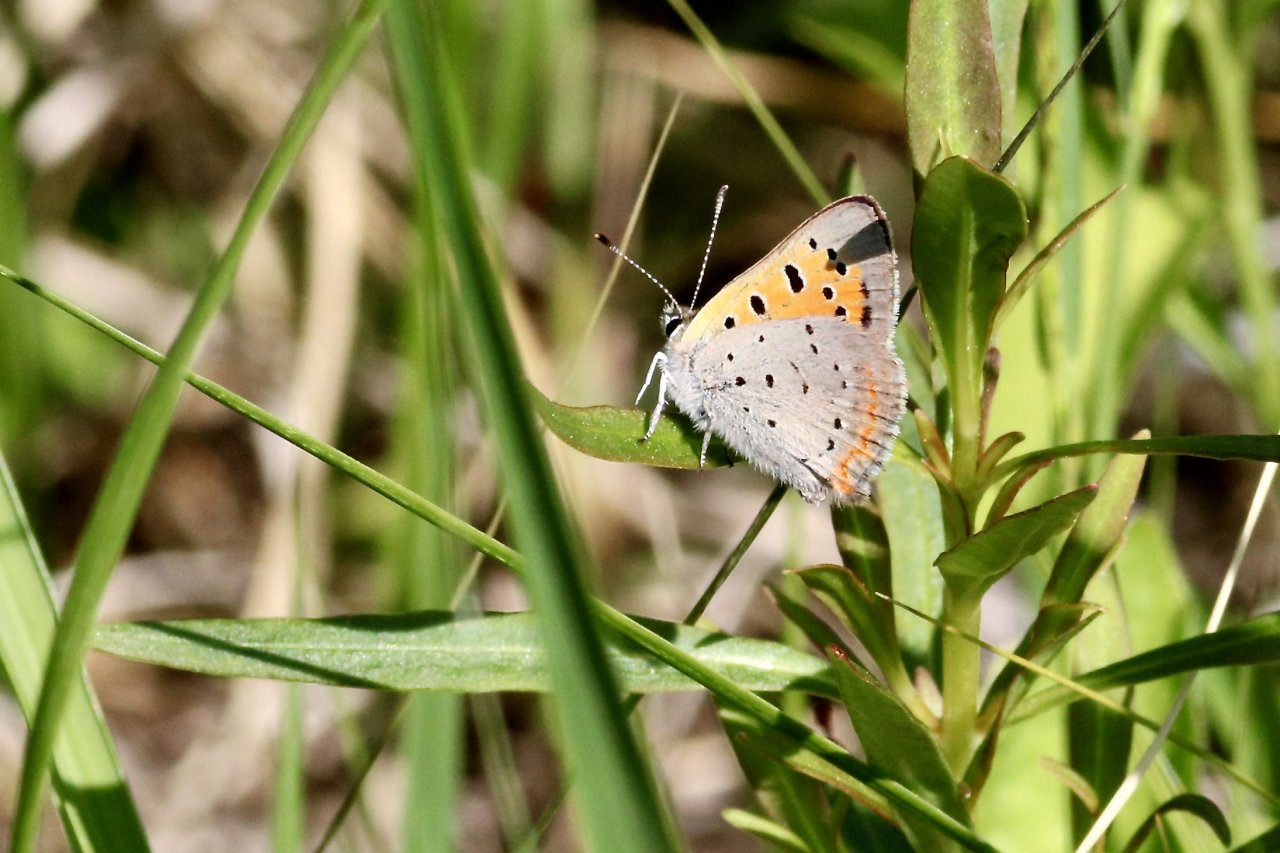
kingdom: Animalia
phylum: Arthropoda
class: Insecta
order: Lepidoptera
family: Lycaenidae
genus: Lycaena
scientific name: Lycaena phlaeas
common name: American Copper
